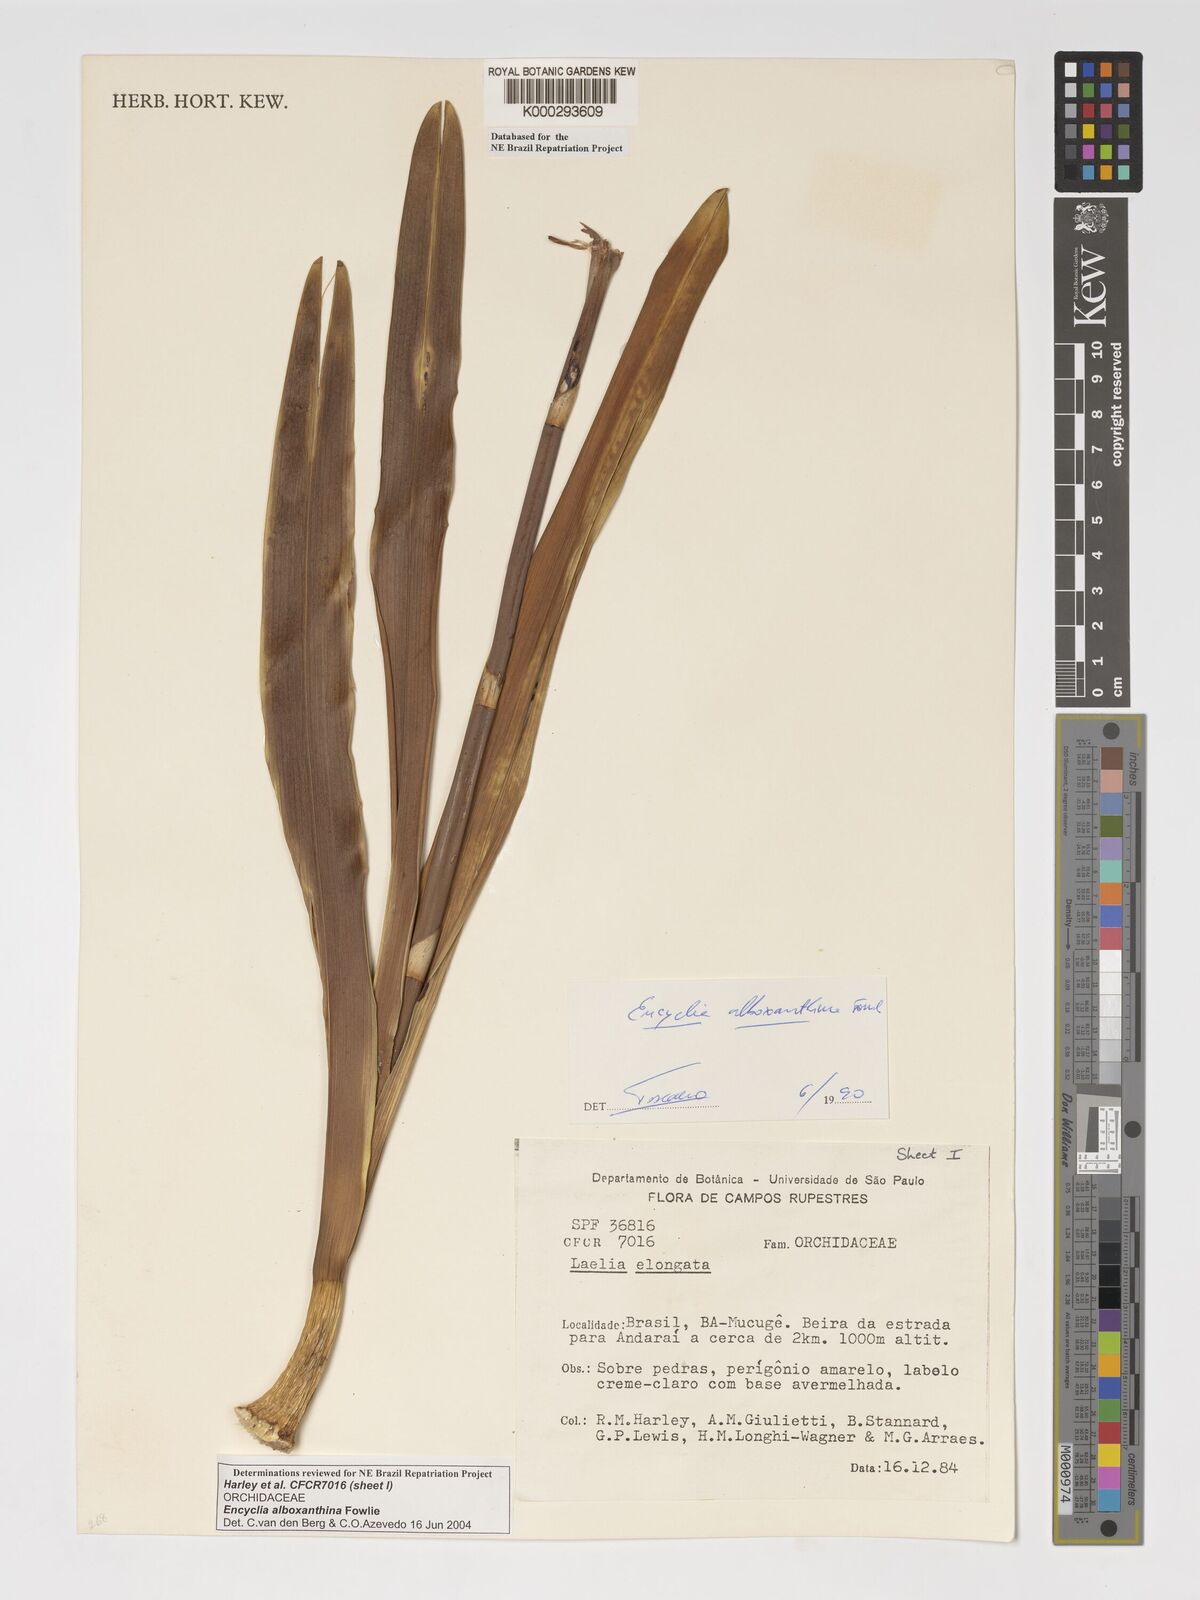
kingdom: Plantae
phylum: Tracheophyta
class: Liliopsida
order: Asparagales
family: Orchidaceae
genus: Encyclia
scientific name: Encyclia alboxanthina
